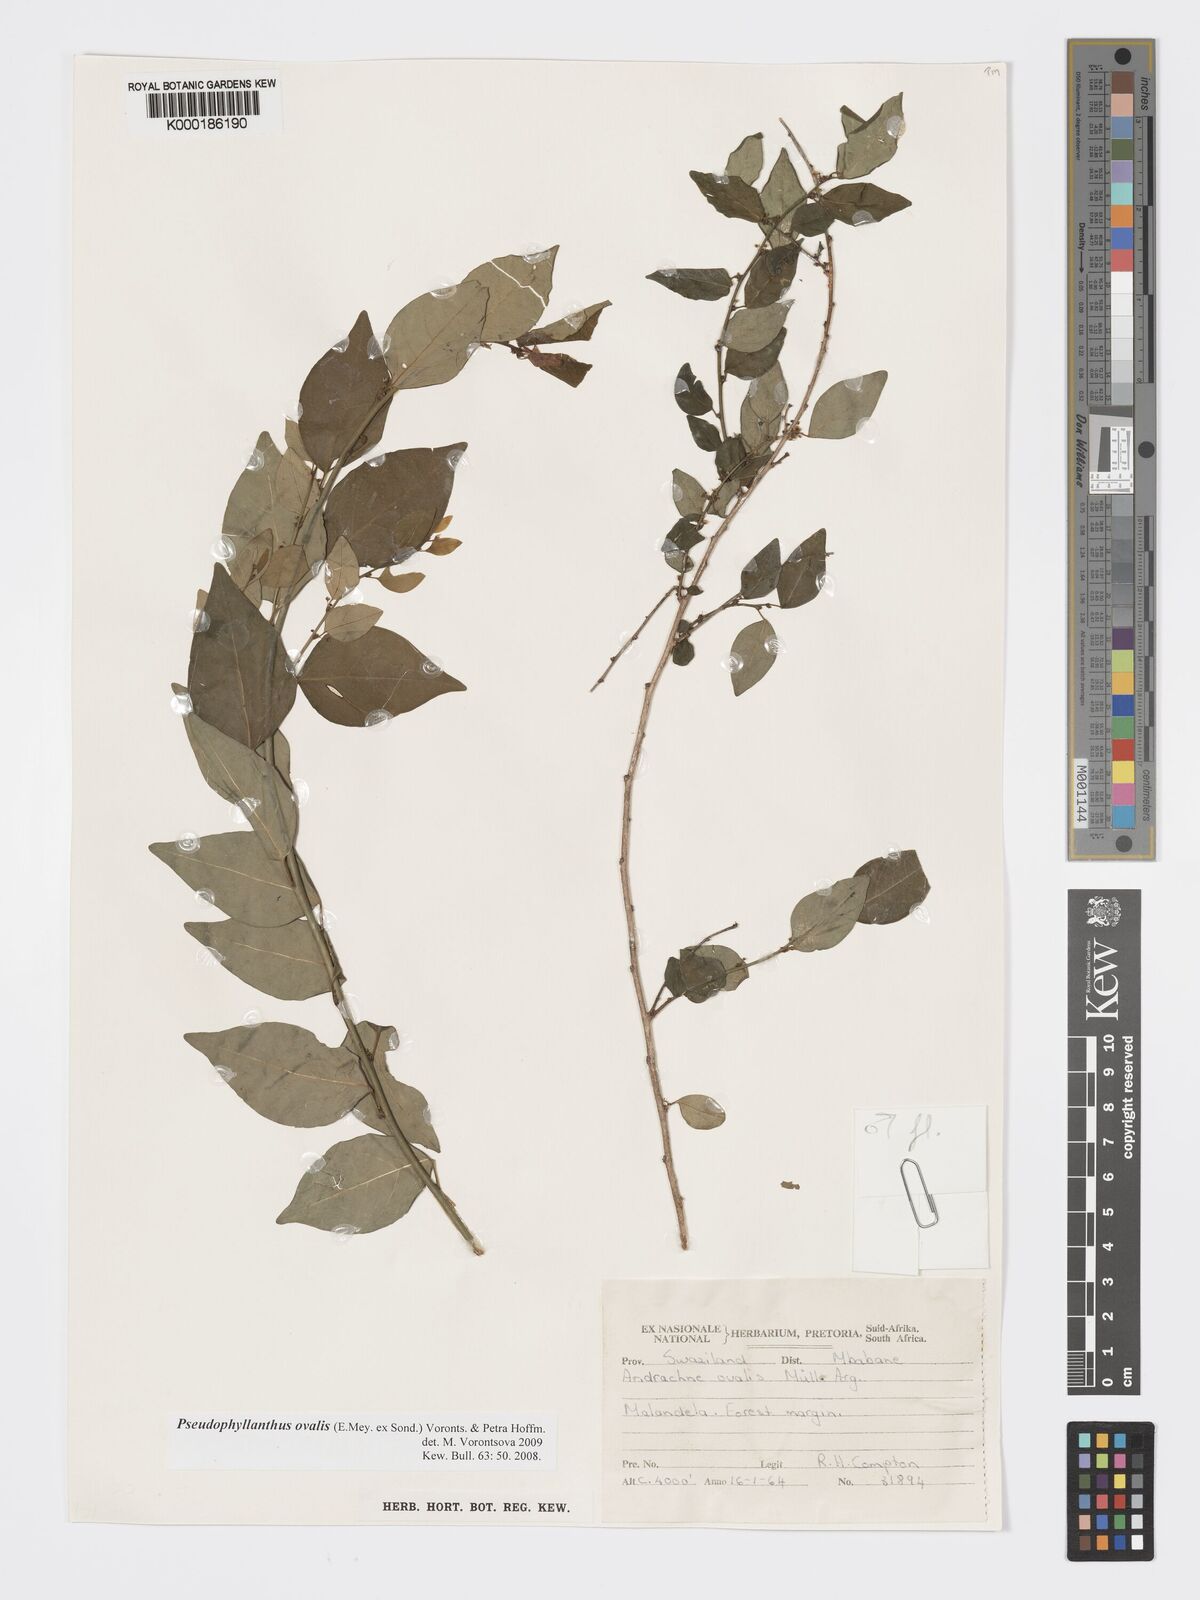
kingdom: Plantae
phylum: Tracheophyta
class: Magnoliopsida
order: Malpighiales
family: Phyllanthaceae
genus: Pseudophyllanthus
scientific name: Pseudophyllanthus ovalis
